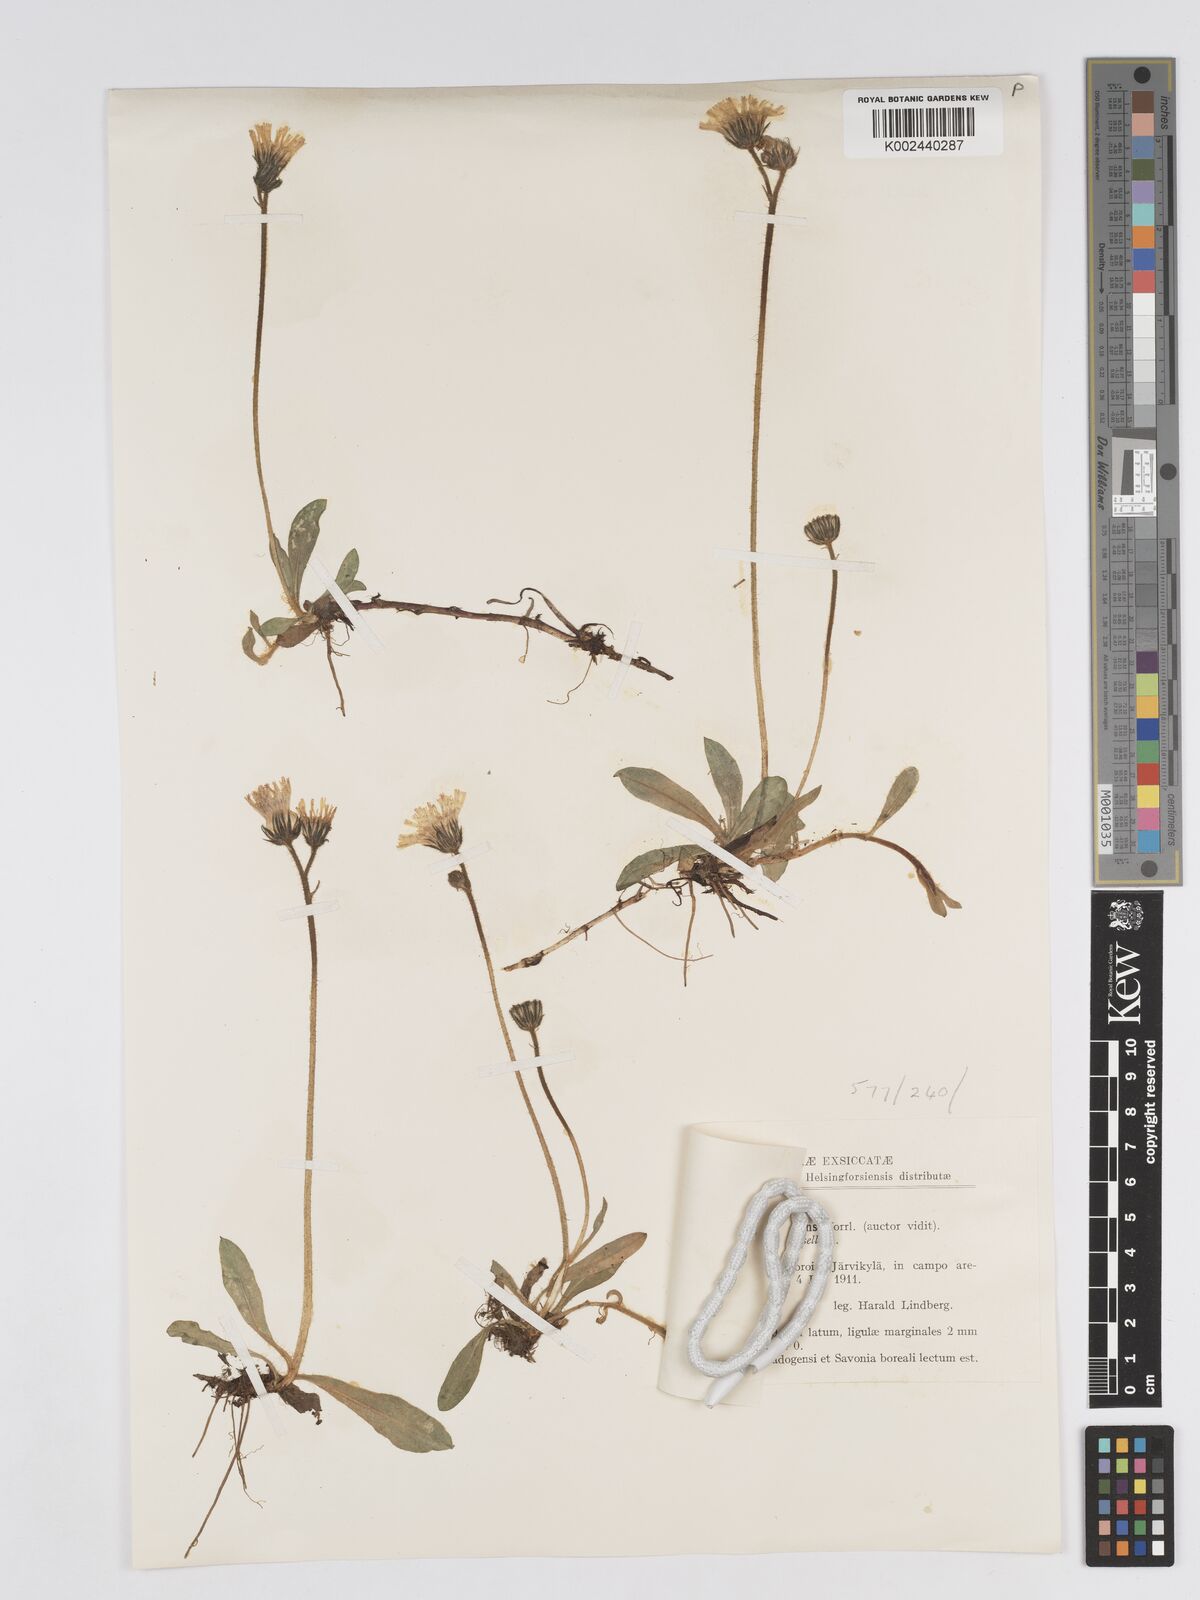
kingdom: Plantae
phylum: Tracheophyta
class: Magnoliopsida
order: Asterales
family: Asteraceae
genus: Hieracium
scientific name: Hieracium
